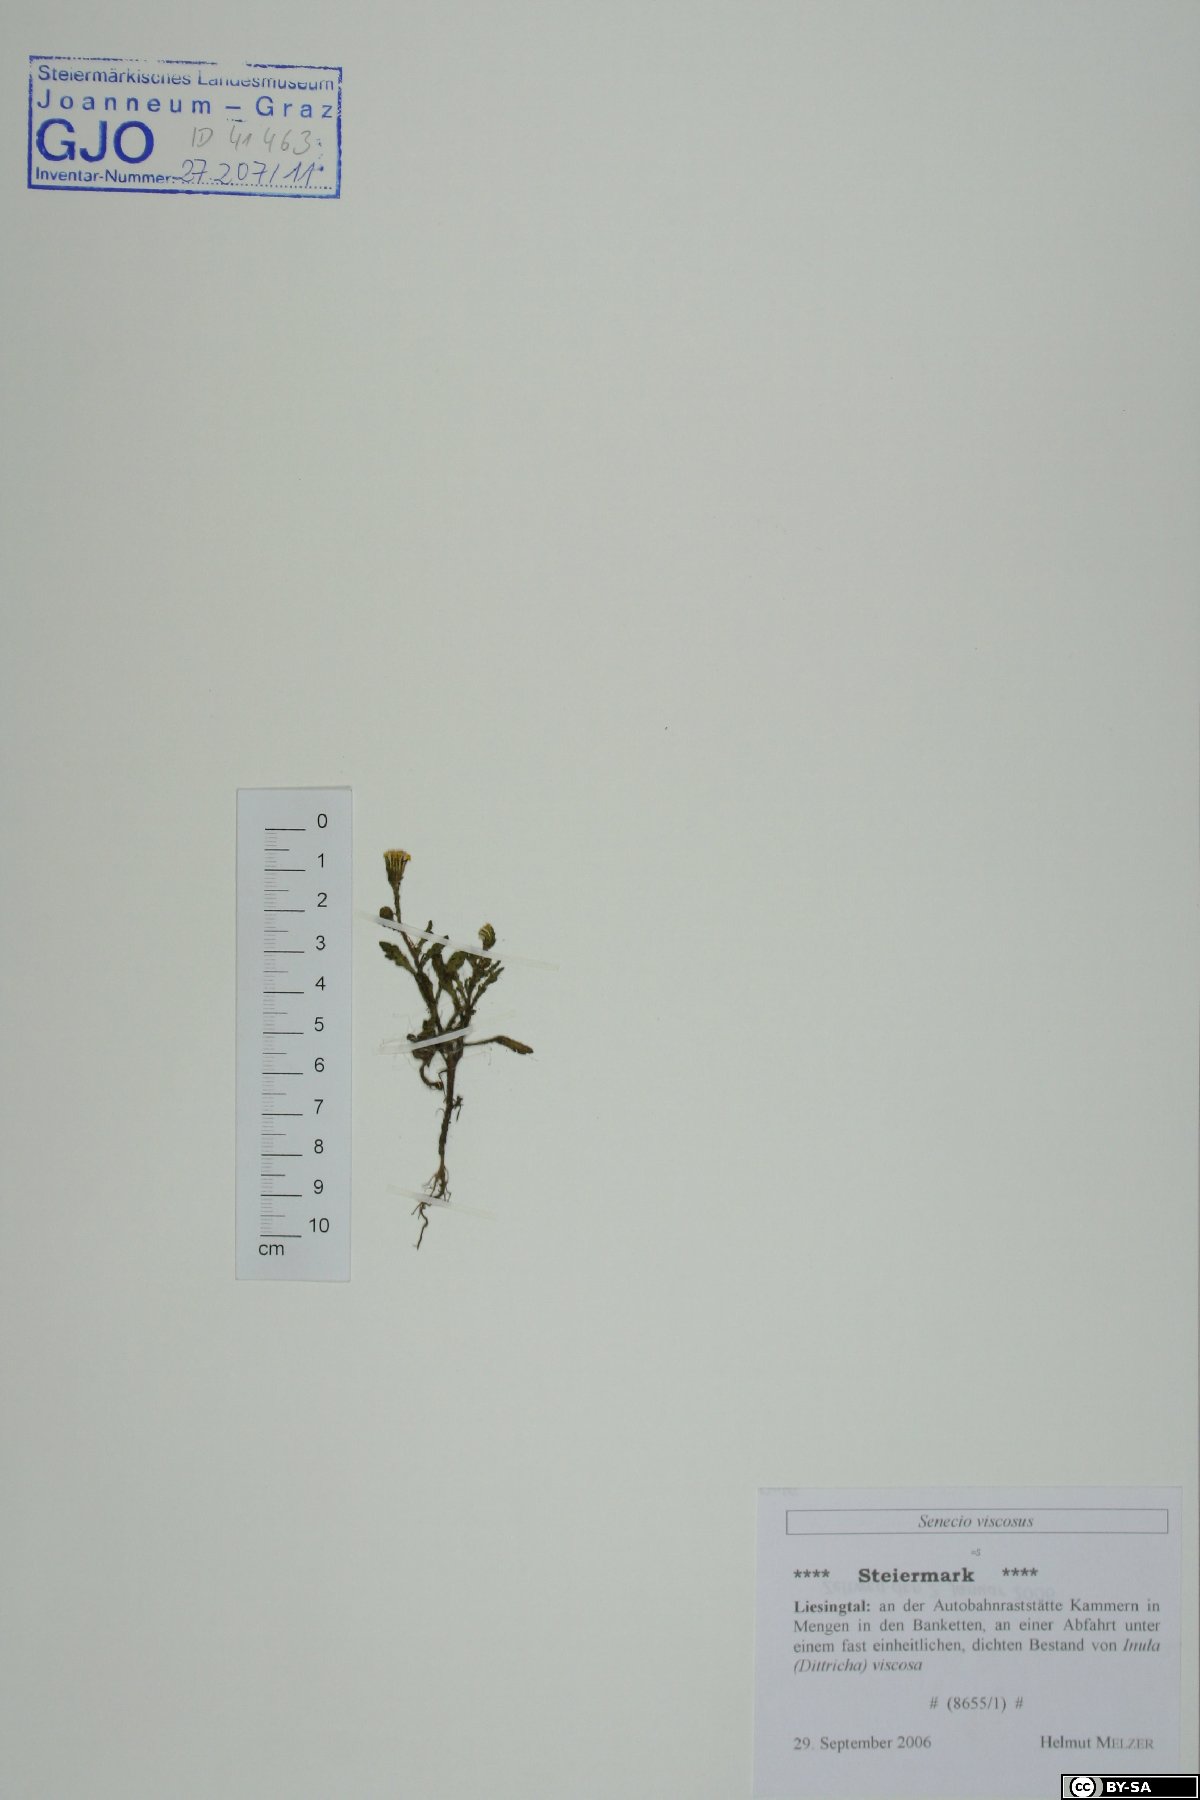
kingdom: Plantae
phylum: Tracheophyta
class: Magnoliopsida
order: Asterales
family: Asteraceae
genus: Senecio
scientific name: Senecio viscosus
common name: Sticky groundsel
